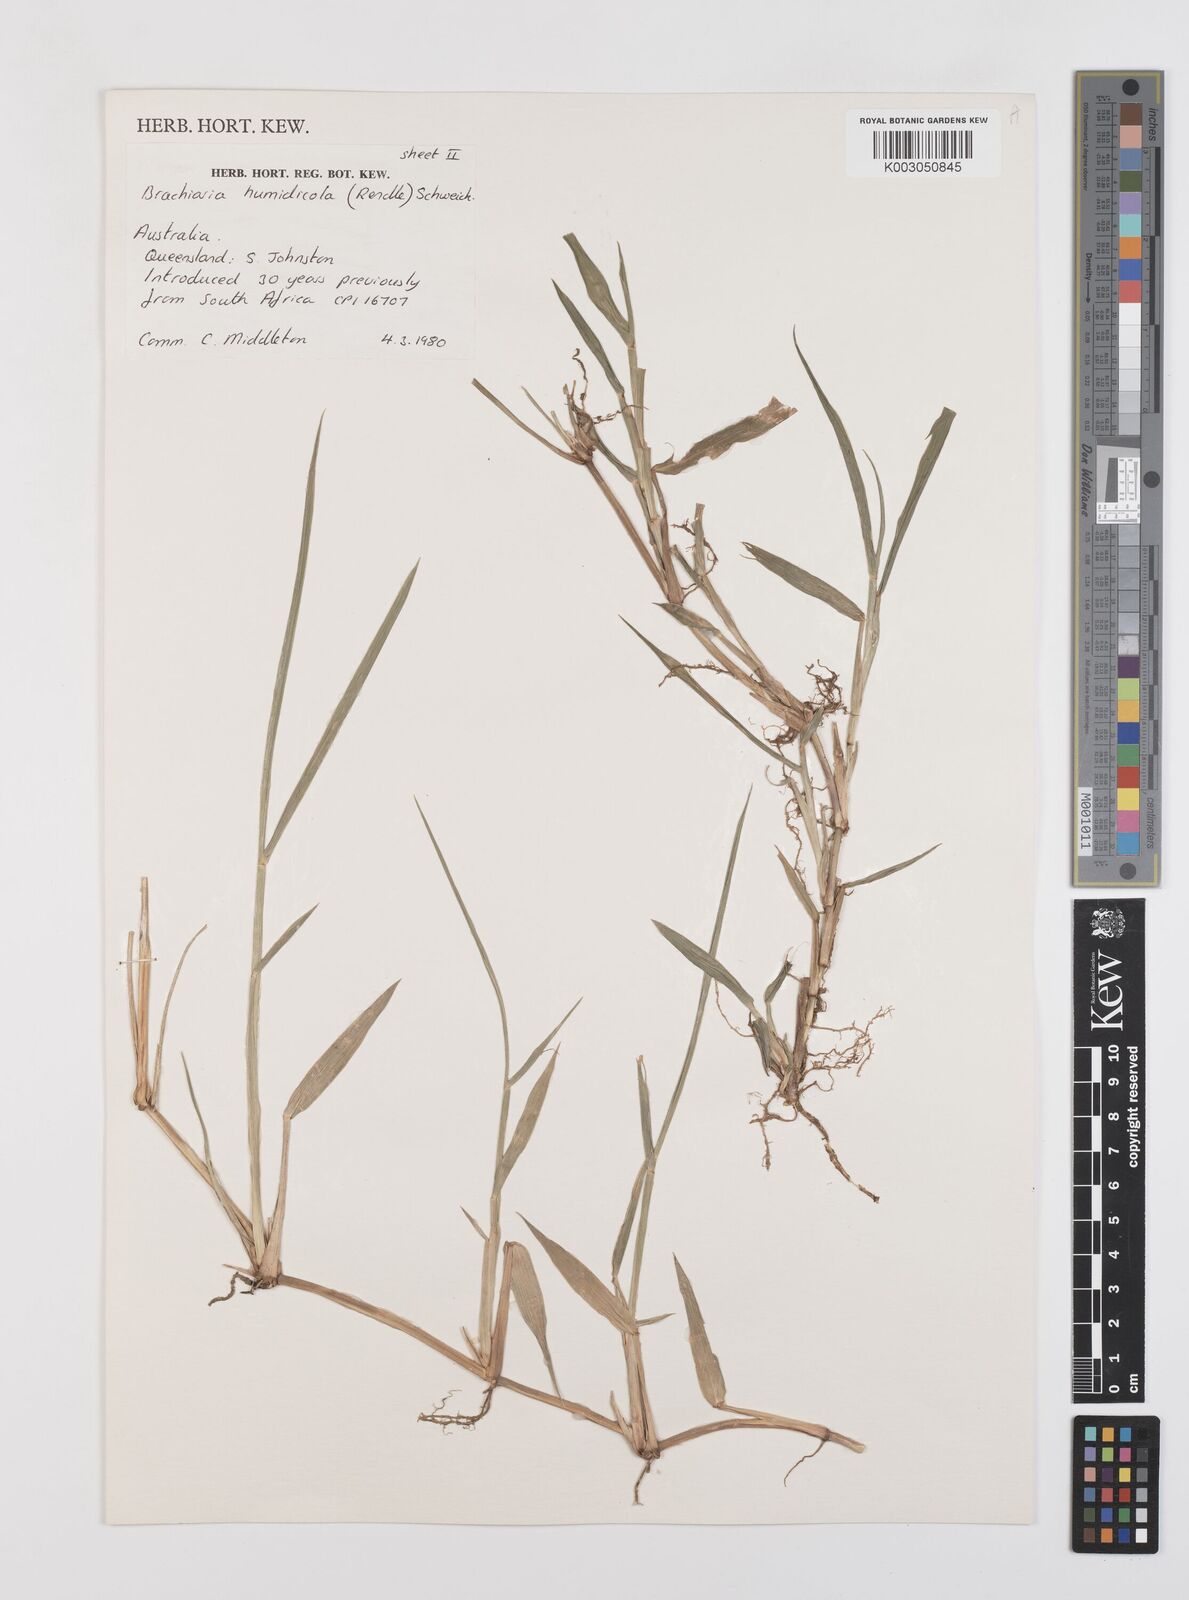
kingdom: Plantae
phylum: Tracheophyta
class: Liliopsida
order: Poales
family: Poaceae
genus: Urochloa
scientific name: Urochloa dictyoneura
